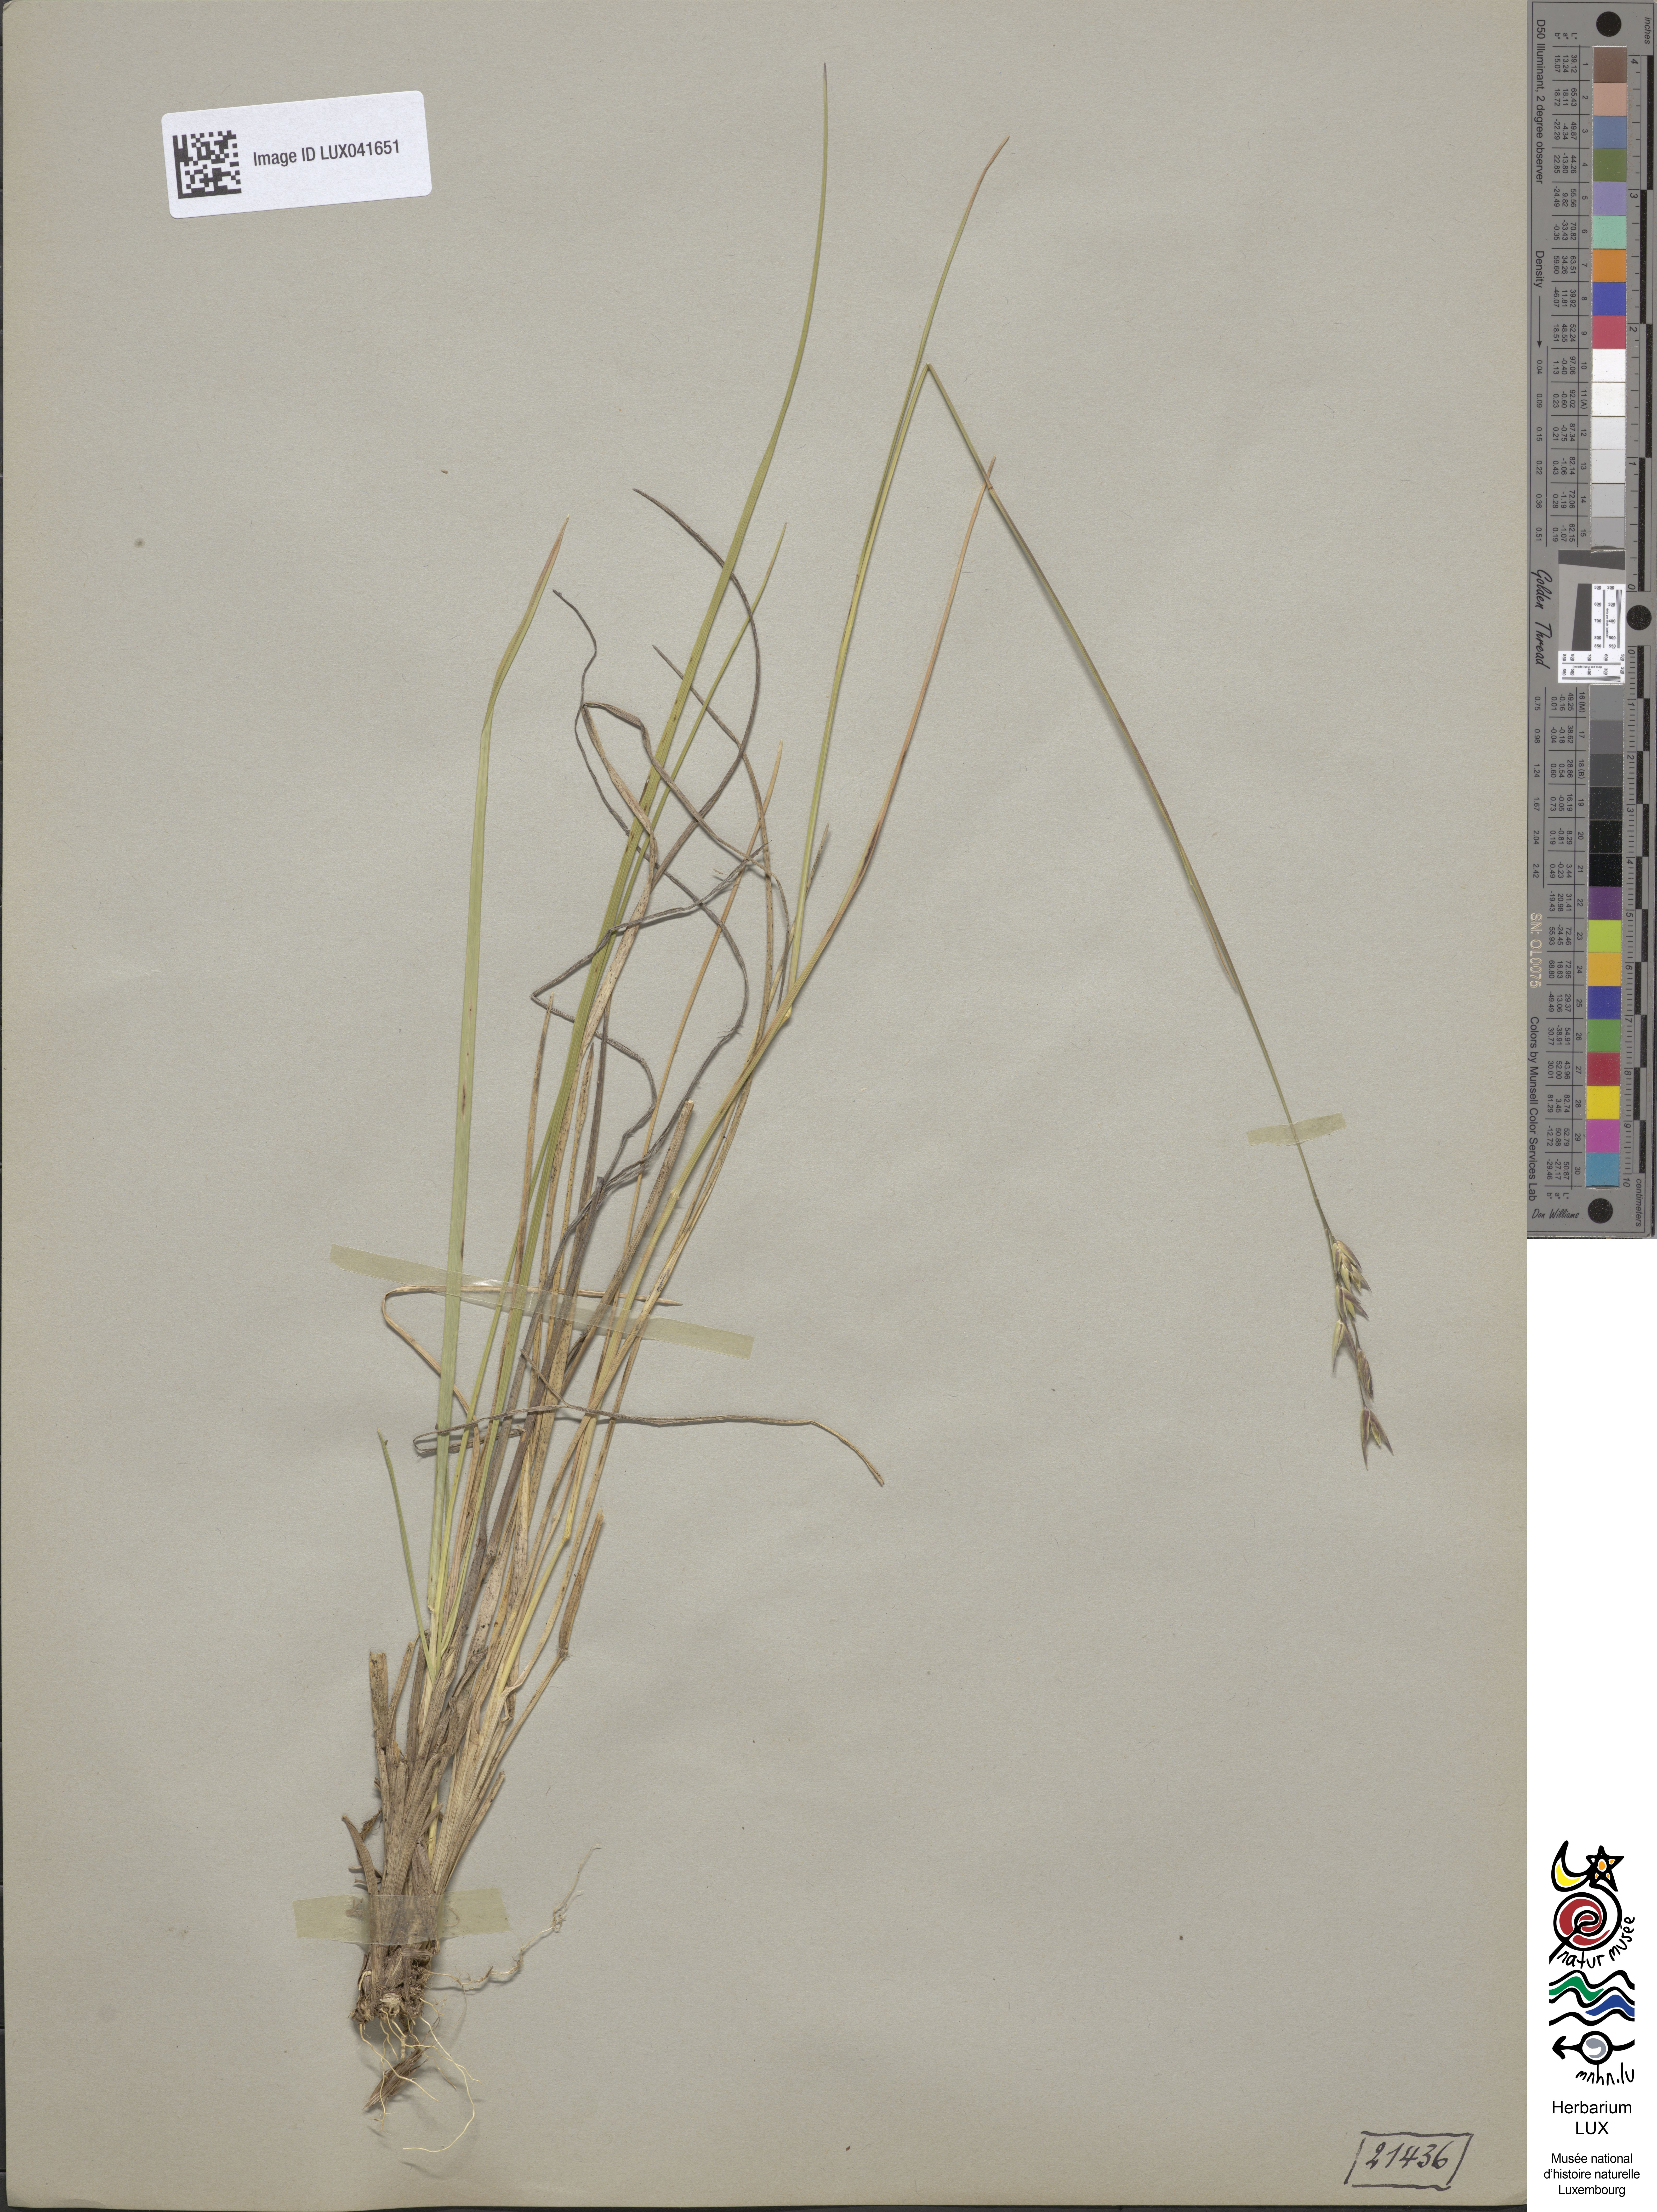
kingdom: Plantae
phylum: Tracheophyta
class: Liliopsida
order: Poales
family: Poaceae
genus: Danthonia
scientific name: Danthonia decumbens
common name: Common heathgrass
